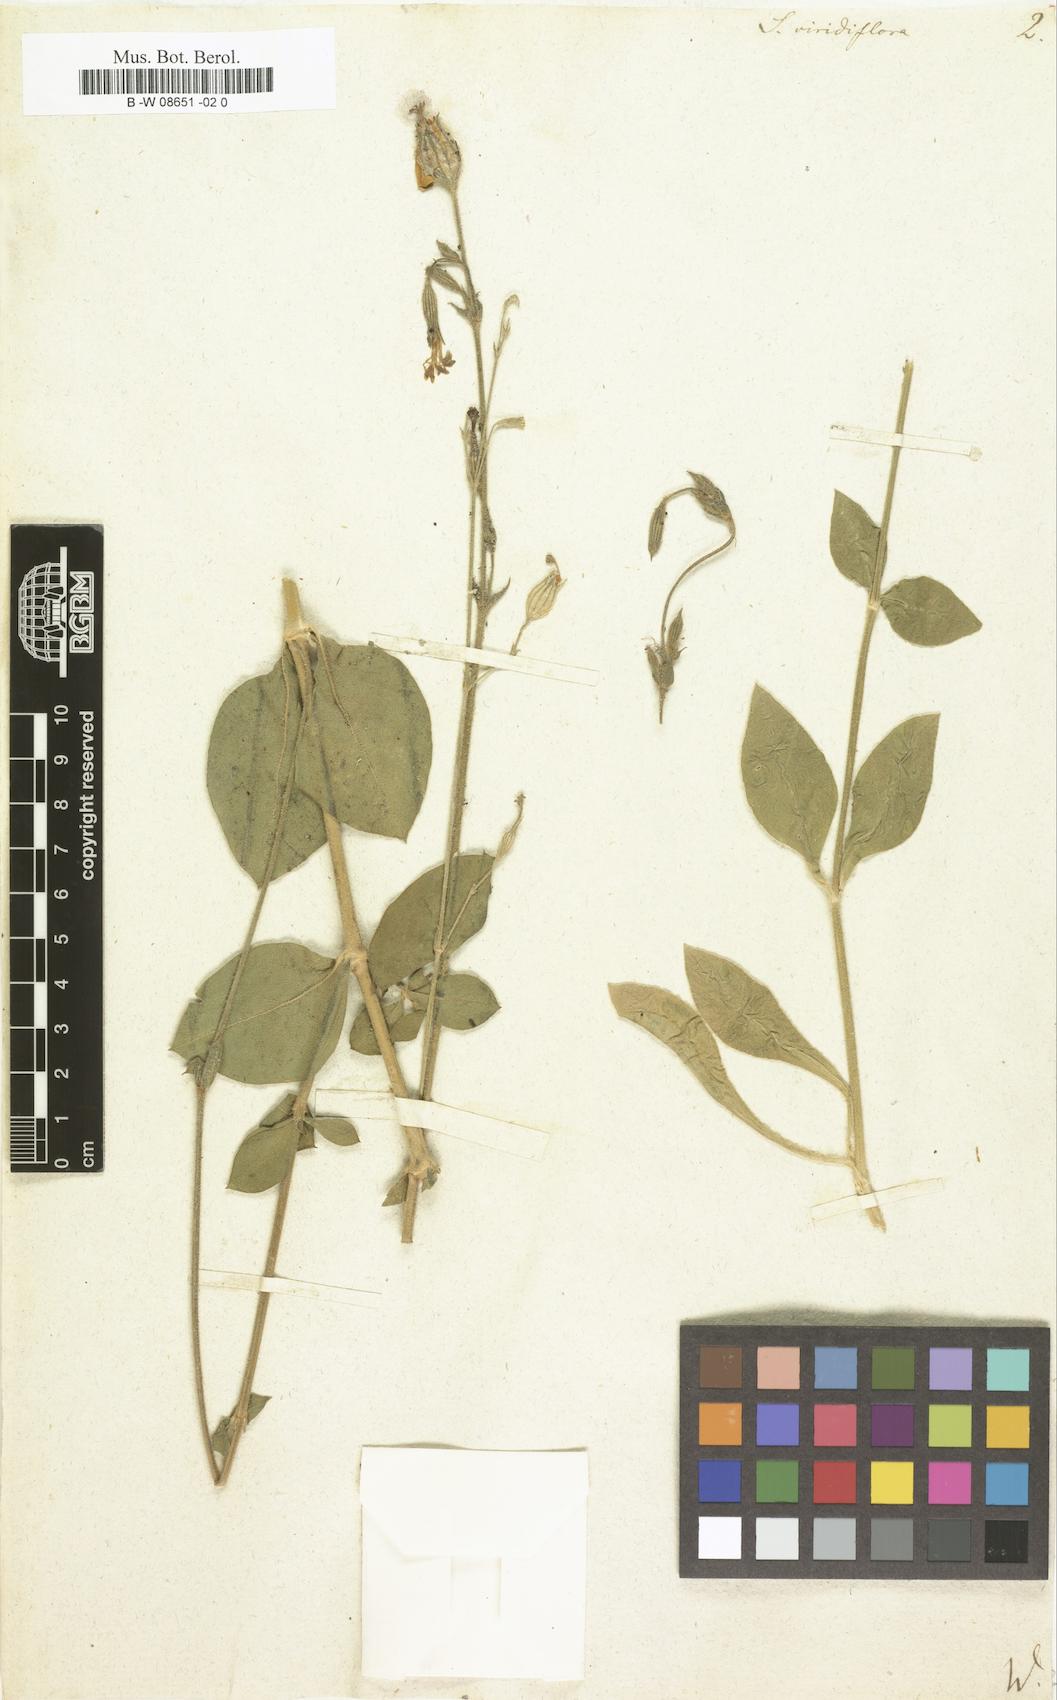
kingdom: Plantae
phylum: Tracheophyta
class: Magnoliopsida
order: Caryophyllales
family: Caryophyllaceae
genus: Silene
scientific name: Silene viridiflora
